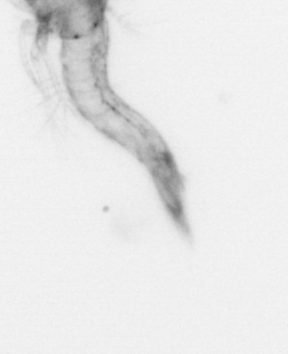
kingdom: Animalia
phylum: Arthropoda
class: Malacostraca
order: Decapoda
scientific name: Decapoda
